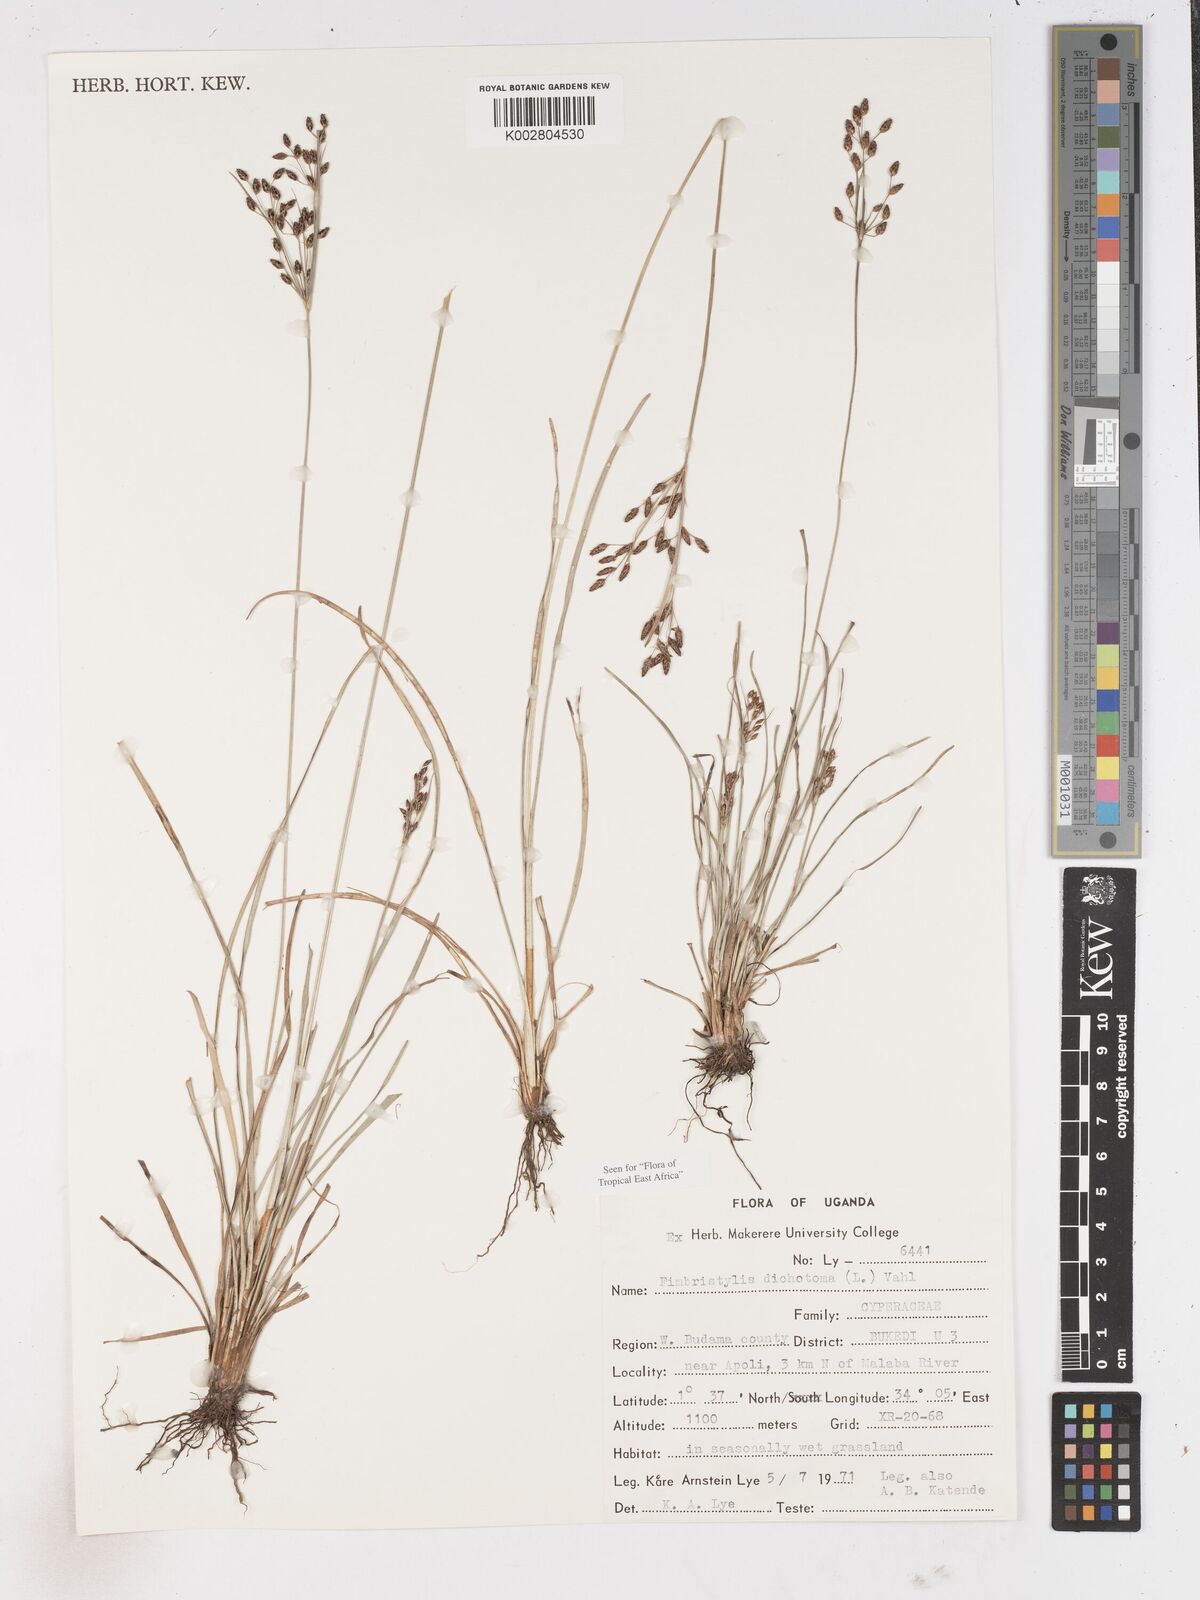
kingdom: Plantae
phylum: Tracheophyta
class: Liliopsida
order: Poales
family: Cyperaceae
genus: Fimbristylis
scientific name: Fimbristylis dichotoma
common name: Forked fimbry
